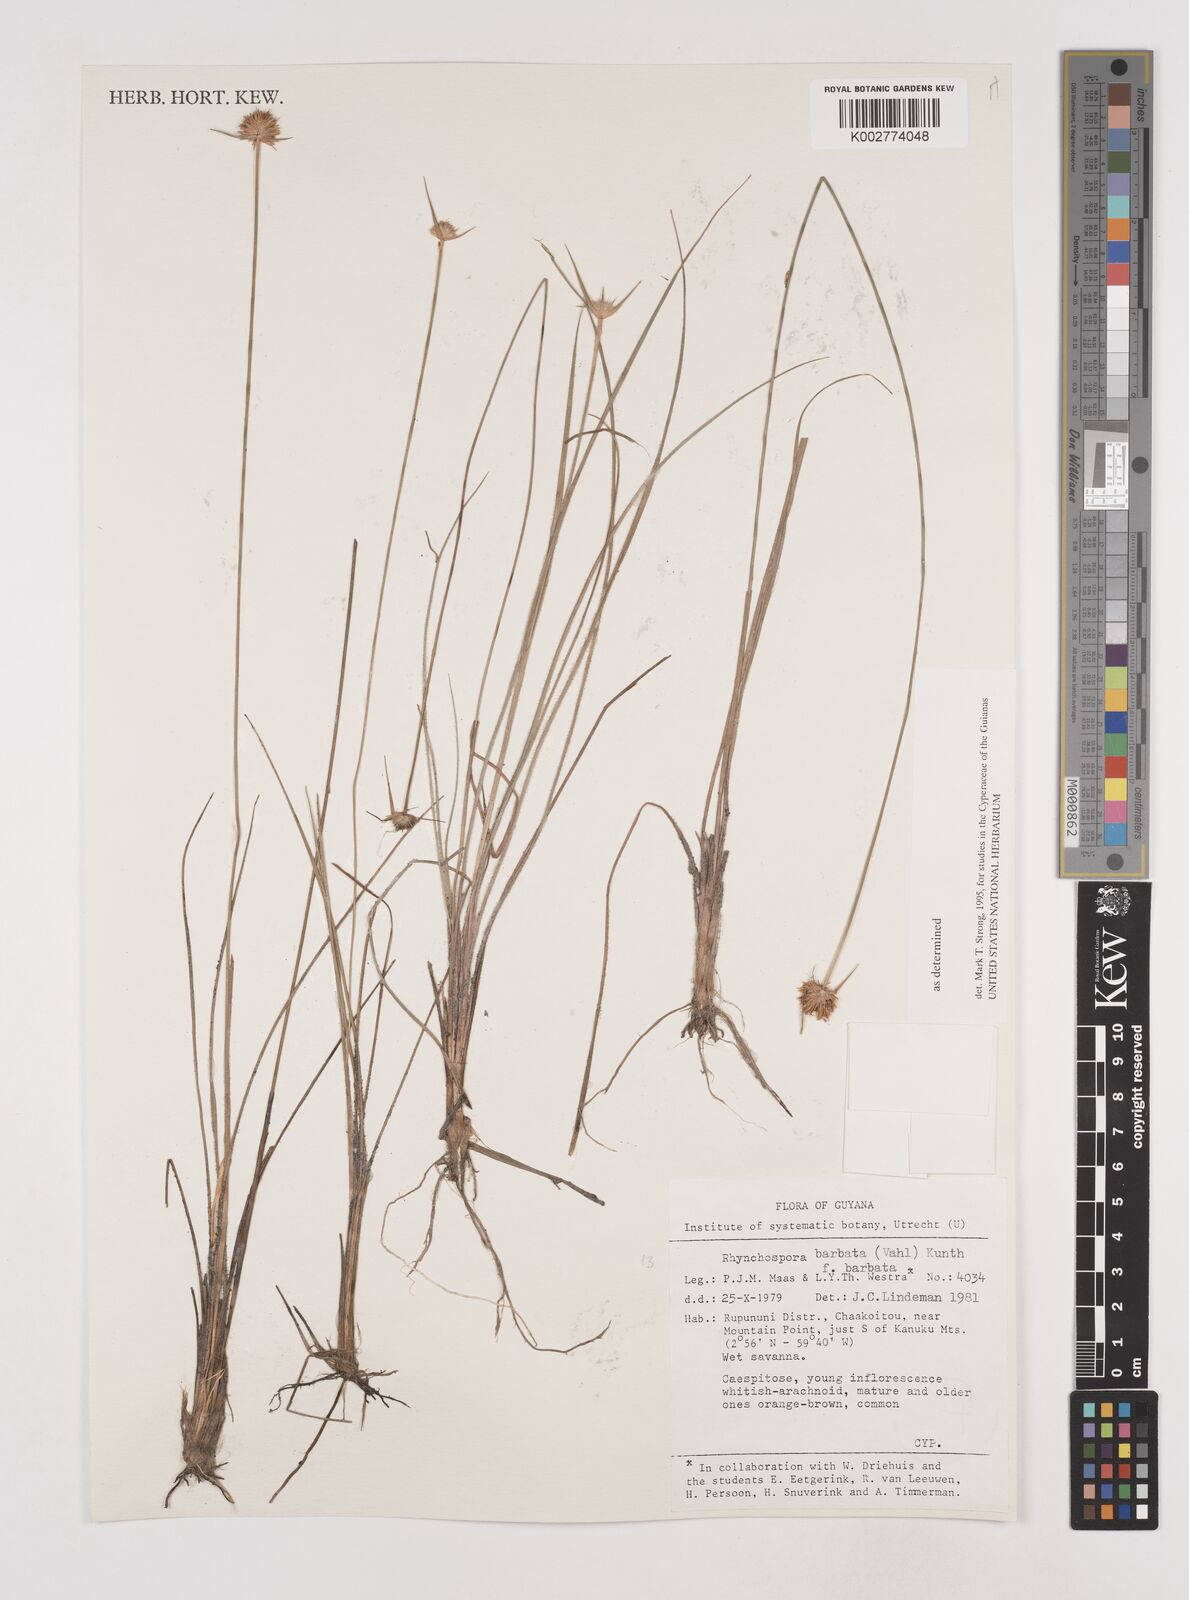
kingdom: Plantae
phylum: Tracheophyta
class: Liliopsida
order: Poales
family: Cyperaceae
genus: Rhynchospora
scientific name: Rhynchospora barbata
